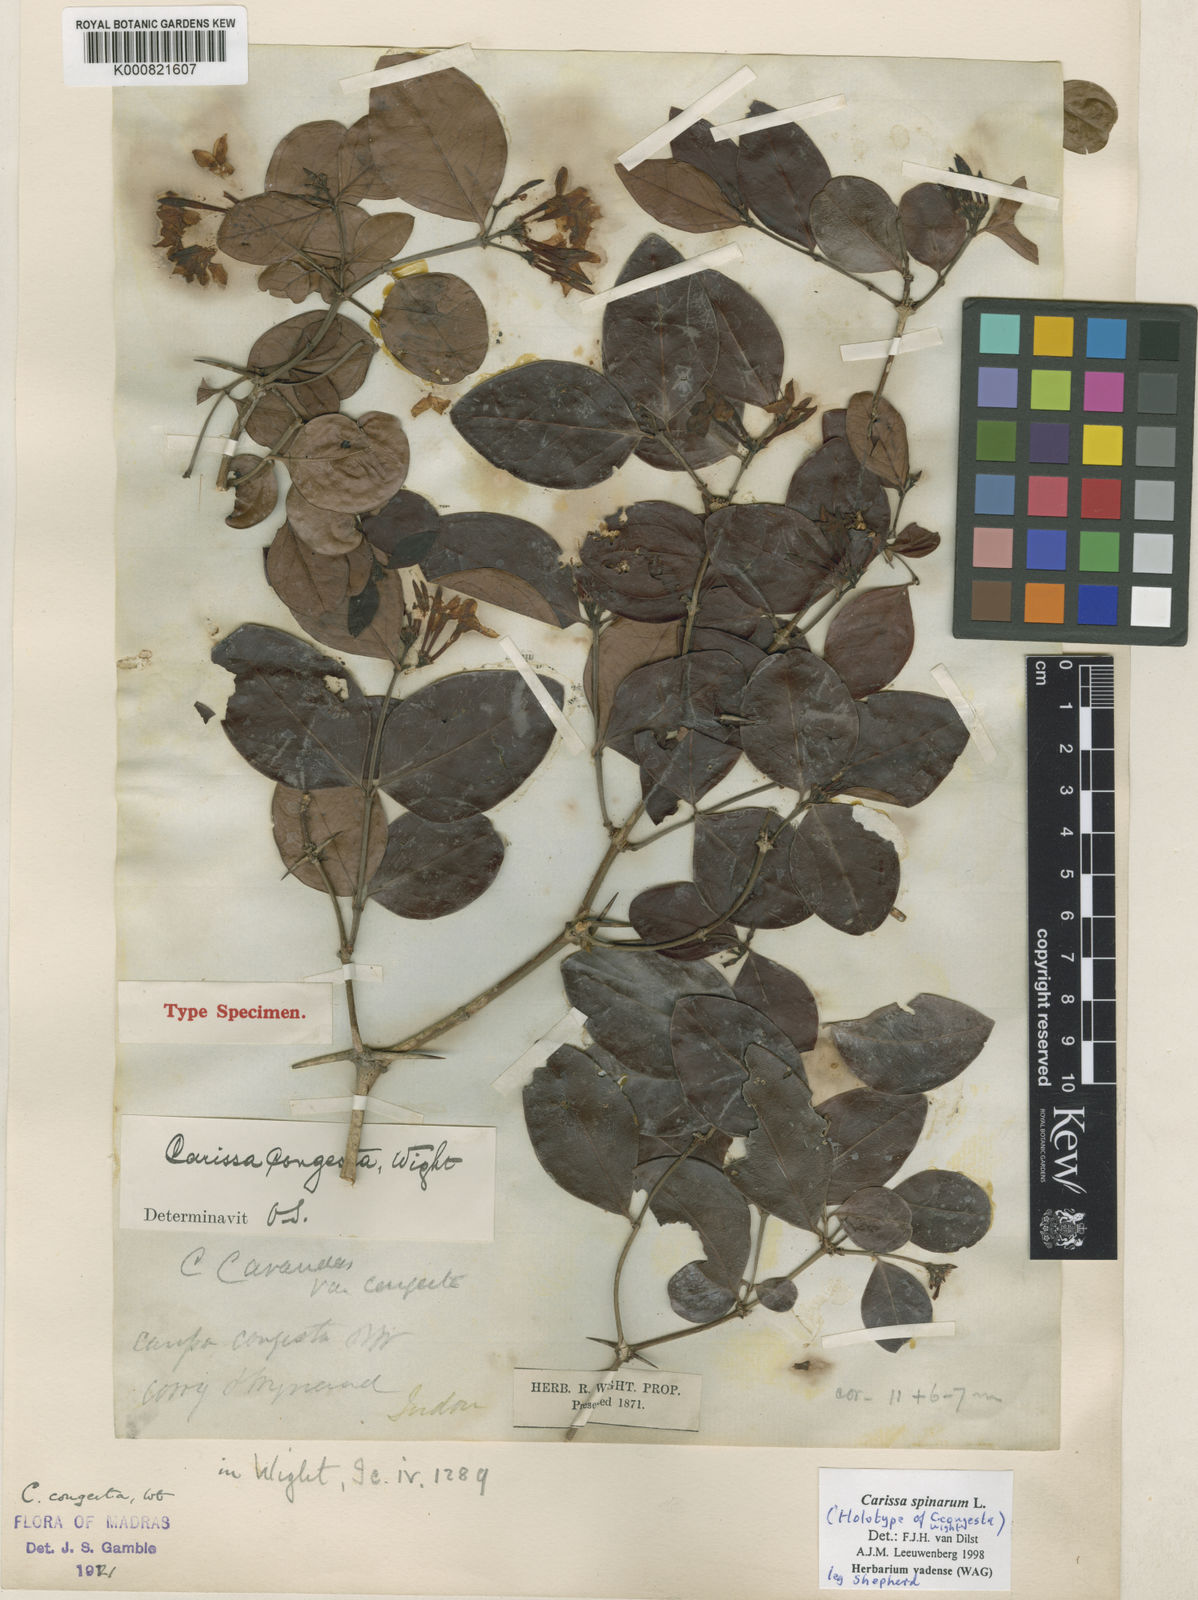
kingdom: Plantae
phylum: Tracheophyta
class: Magnoliopsida
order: Gentianales
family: Apocynaceae
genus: Carissa
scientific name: Carissa spinarum
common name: Egyptian carissa
